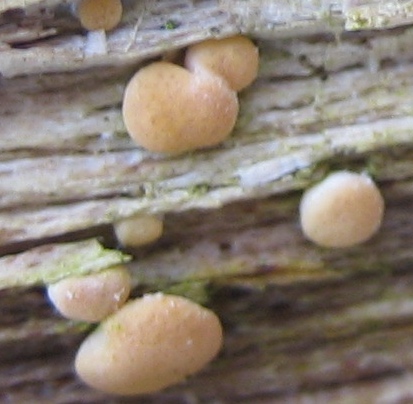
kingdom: Fungi
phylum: Ascomycota
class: Sordariomycetes
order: Hypocreales
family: Hypocreaceae
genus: Trichoderma
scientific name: Trichoderma
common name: kødkerne
